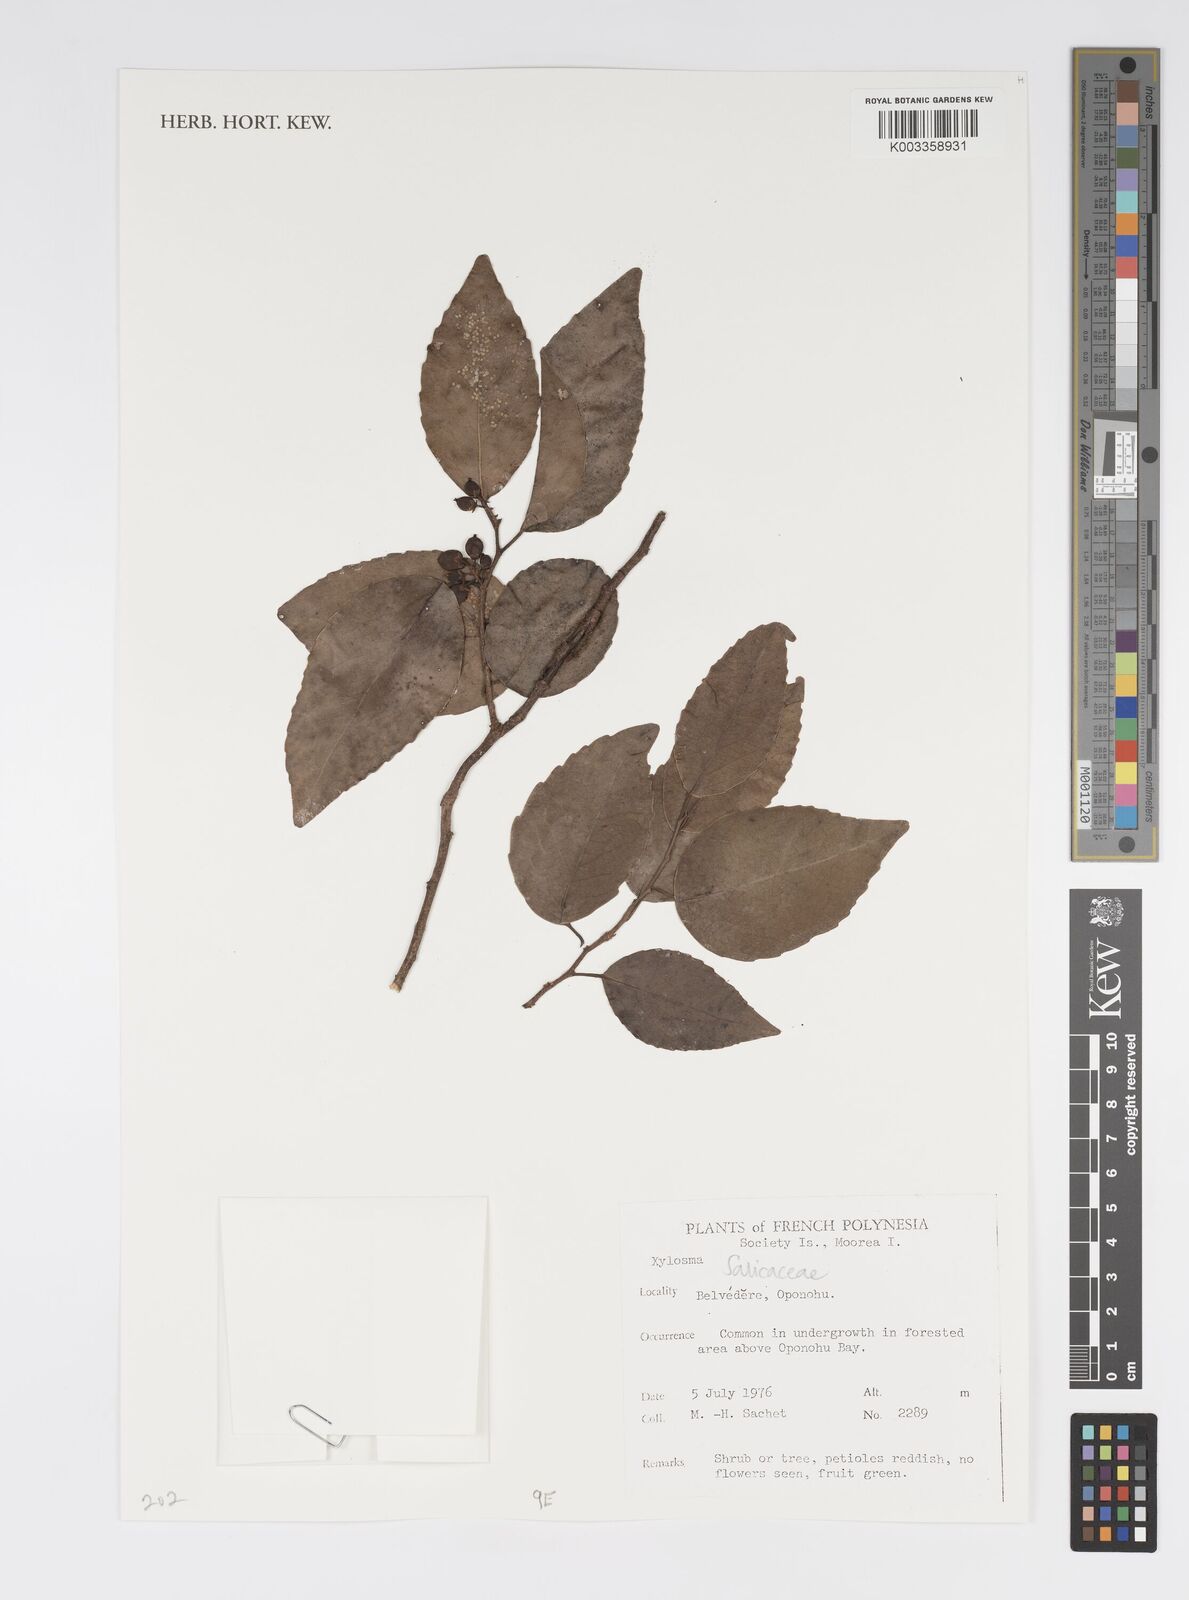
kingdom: Plantae
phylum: Tracheophyta
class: Magnoliopsida
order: Malpighiales
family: Salicaceae
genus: Xylosma
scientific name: Xylosma
